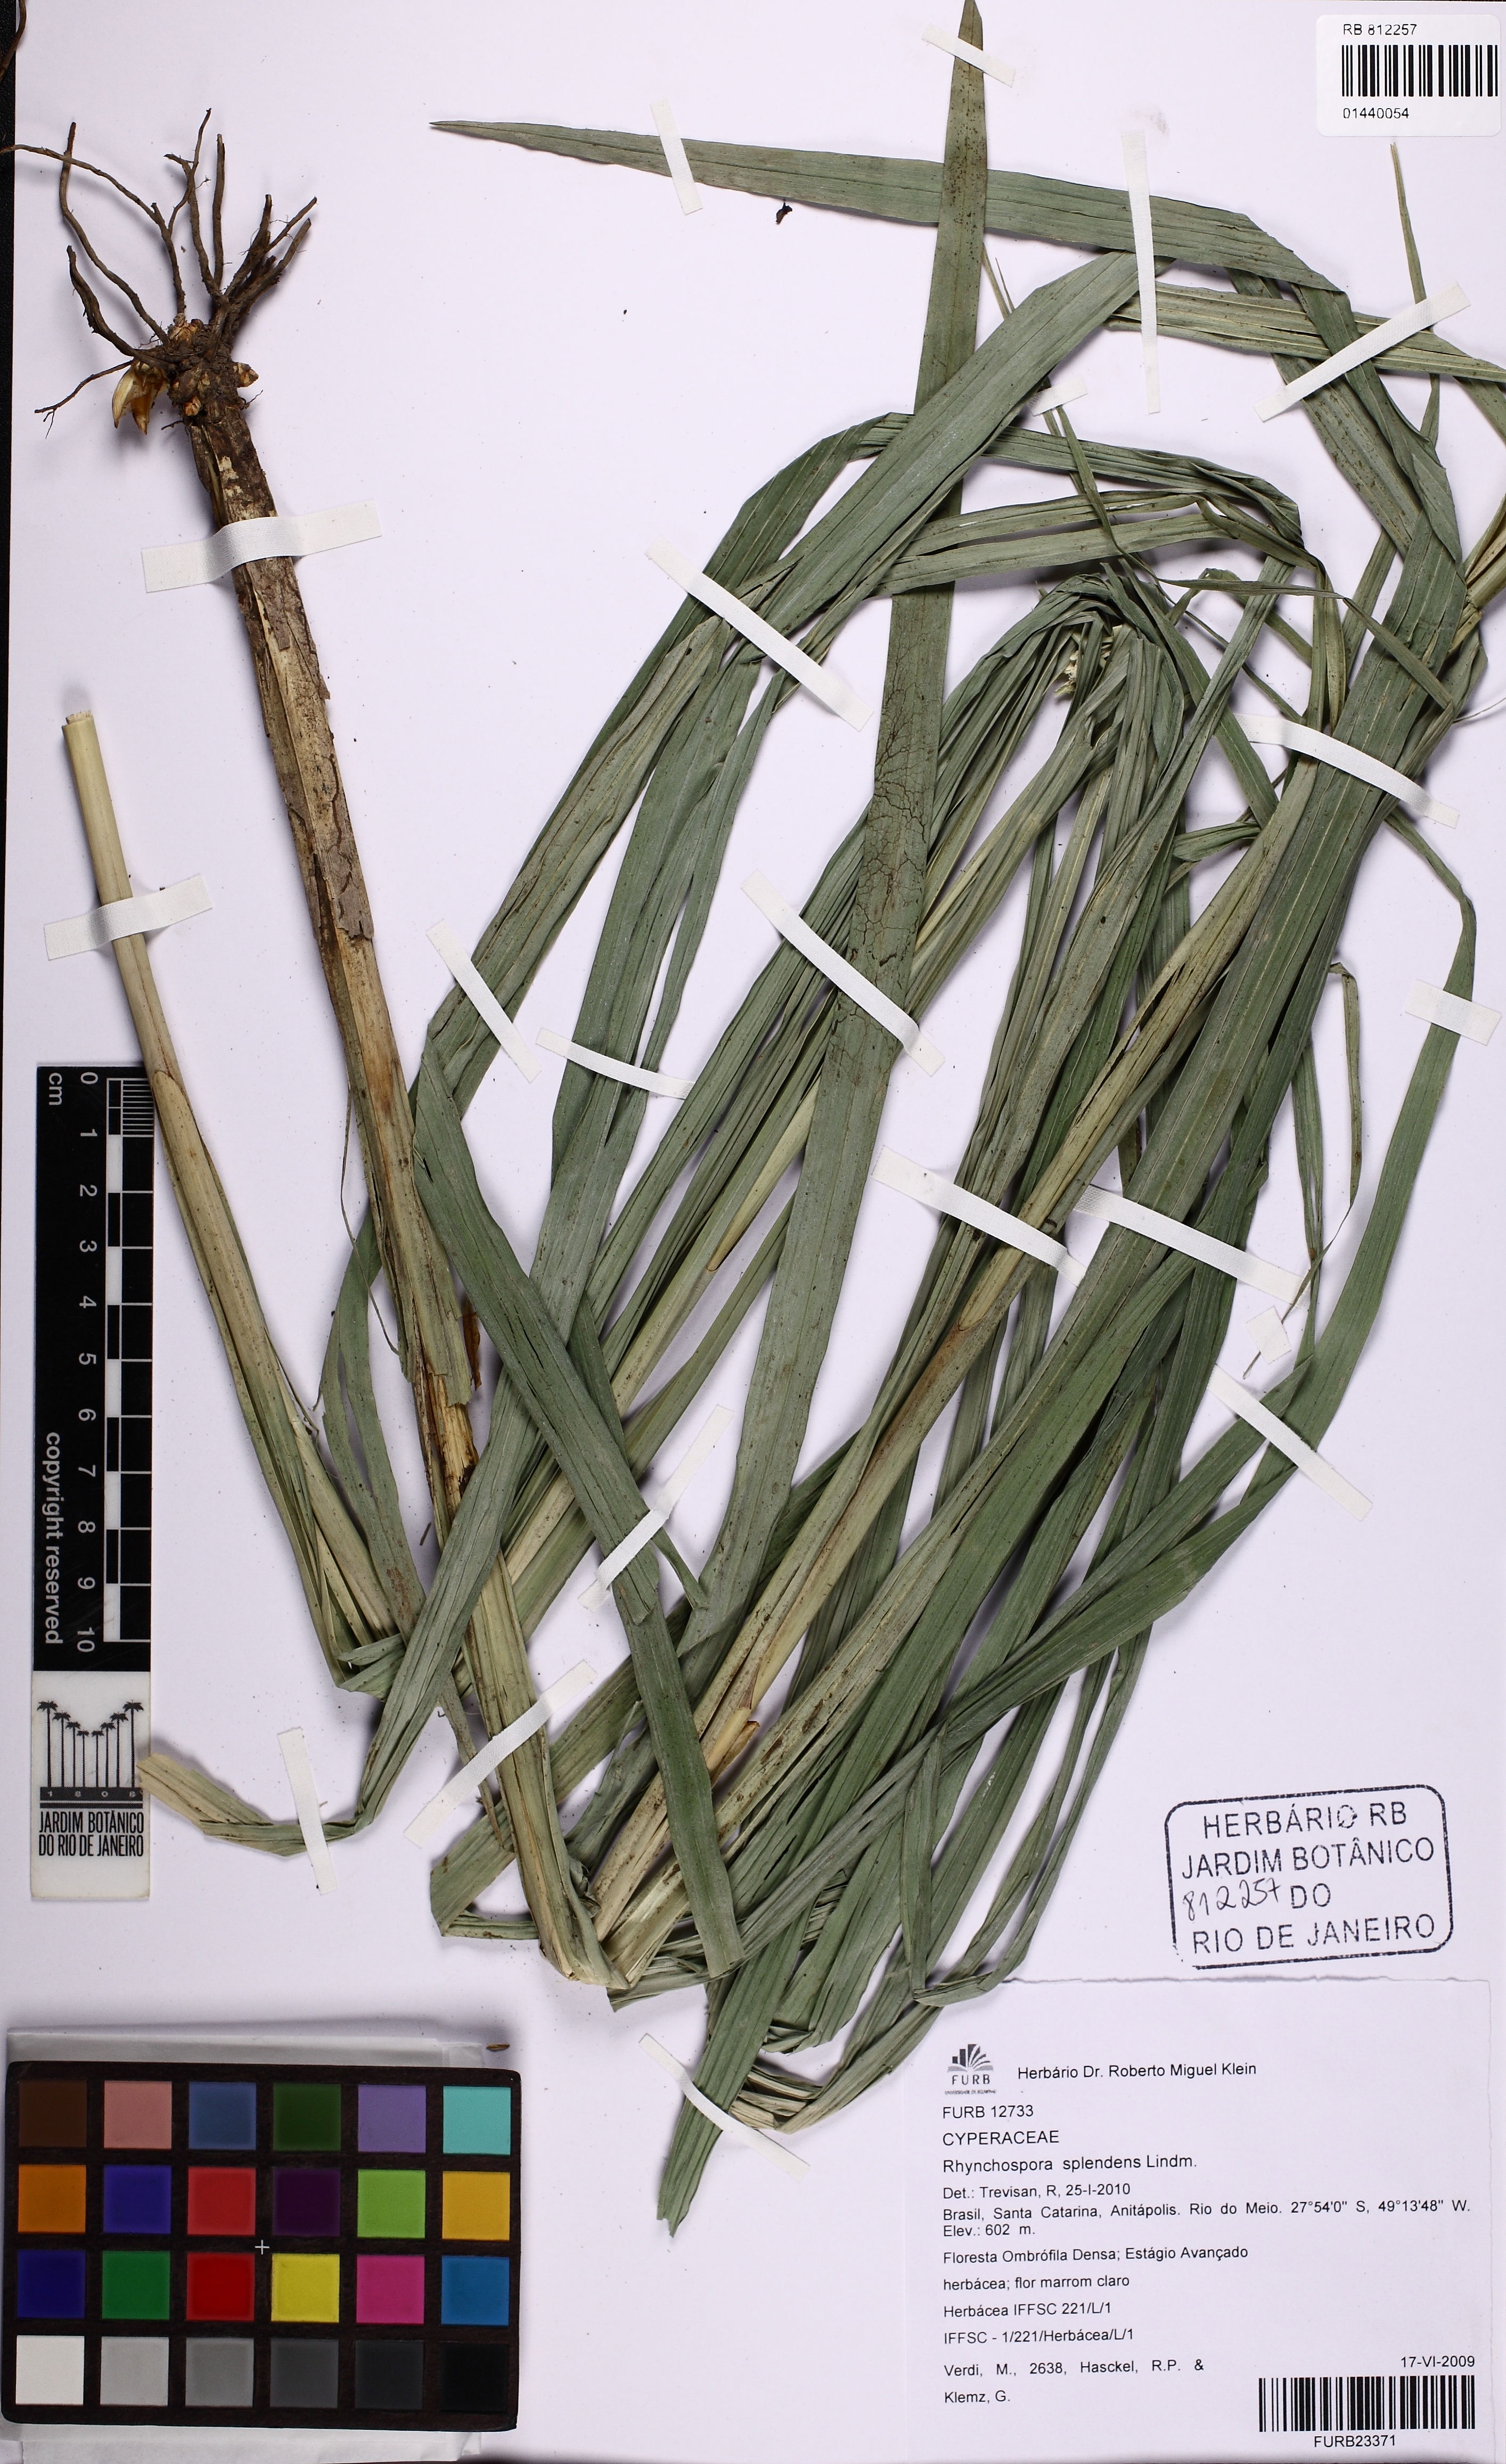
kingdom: Plantae
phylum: Tracheophyta
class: Liliopsida
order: Poales
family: Cyperaceae
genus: Rhynchospora
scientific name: Rhynchospora splendens
